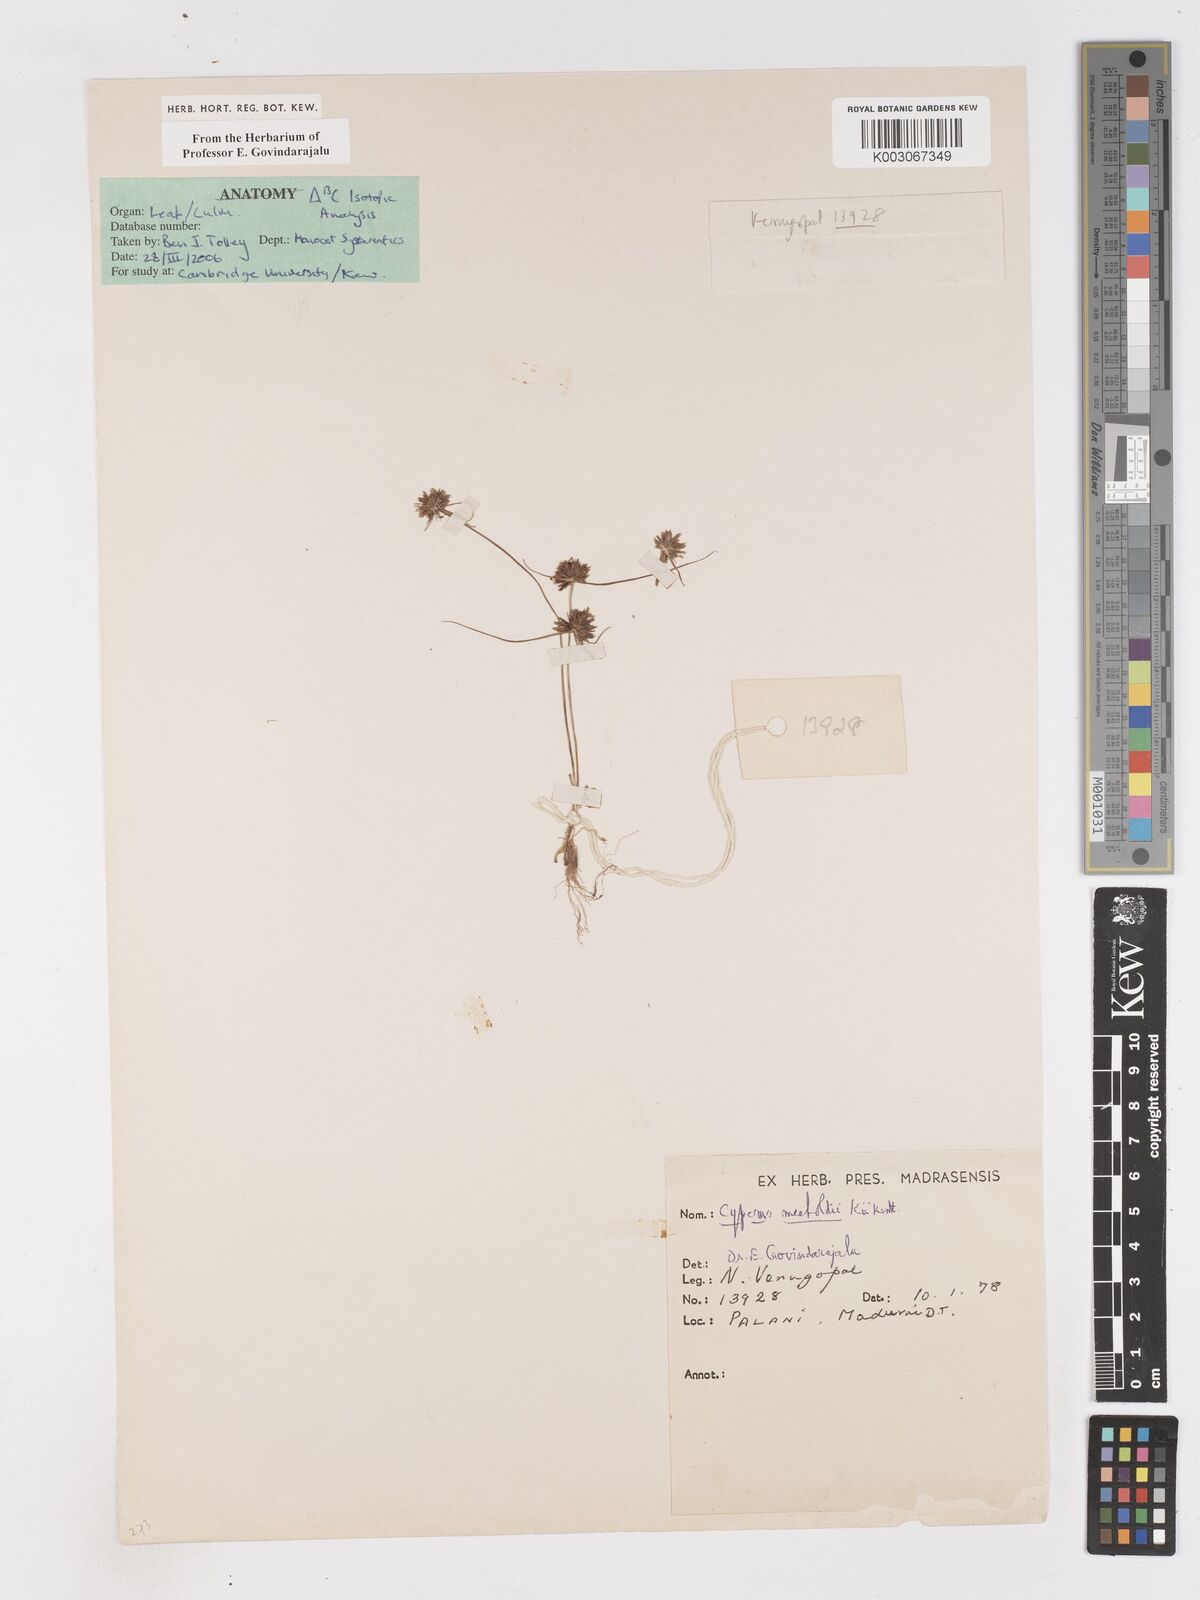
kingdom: Plantae
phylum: Tracheophyta
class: Liliopsida
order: Poales
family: Cyperaceae
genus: Cyperus
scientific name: Cyperus meeboldii
